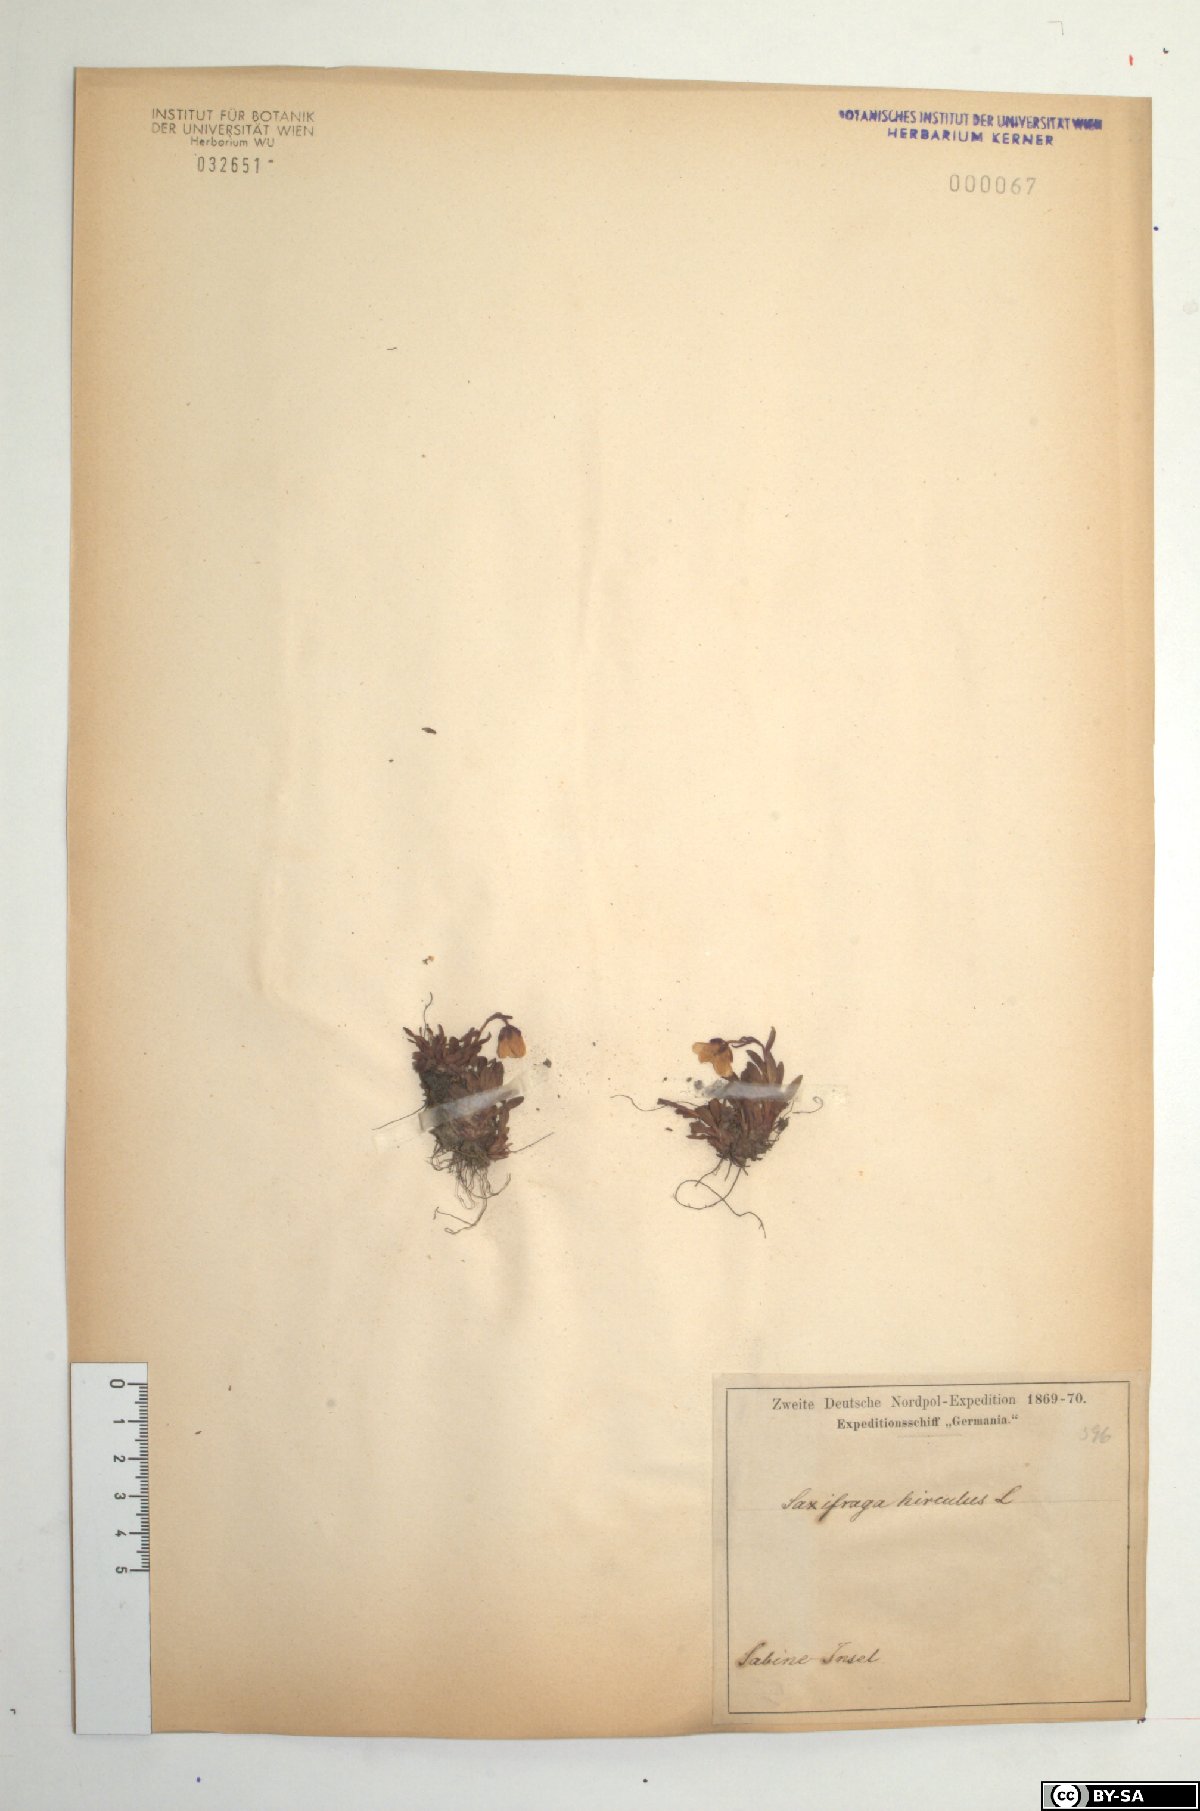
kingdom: Plantae
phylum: Tracheophyta
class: Magnoliopsida
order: Saxifragales
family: Saxifragaceae
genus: Saxifraga
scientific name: Saxifraga hirculus
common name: Yellow marsh saxifrage
